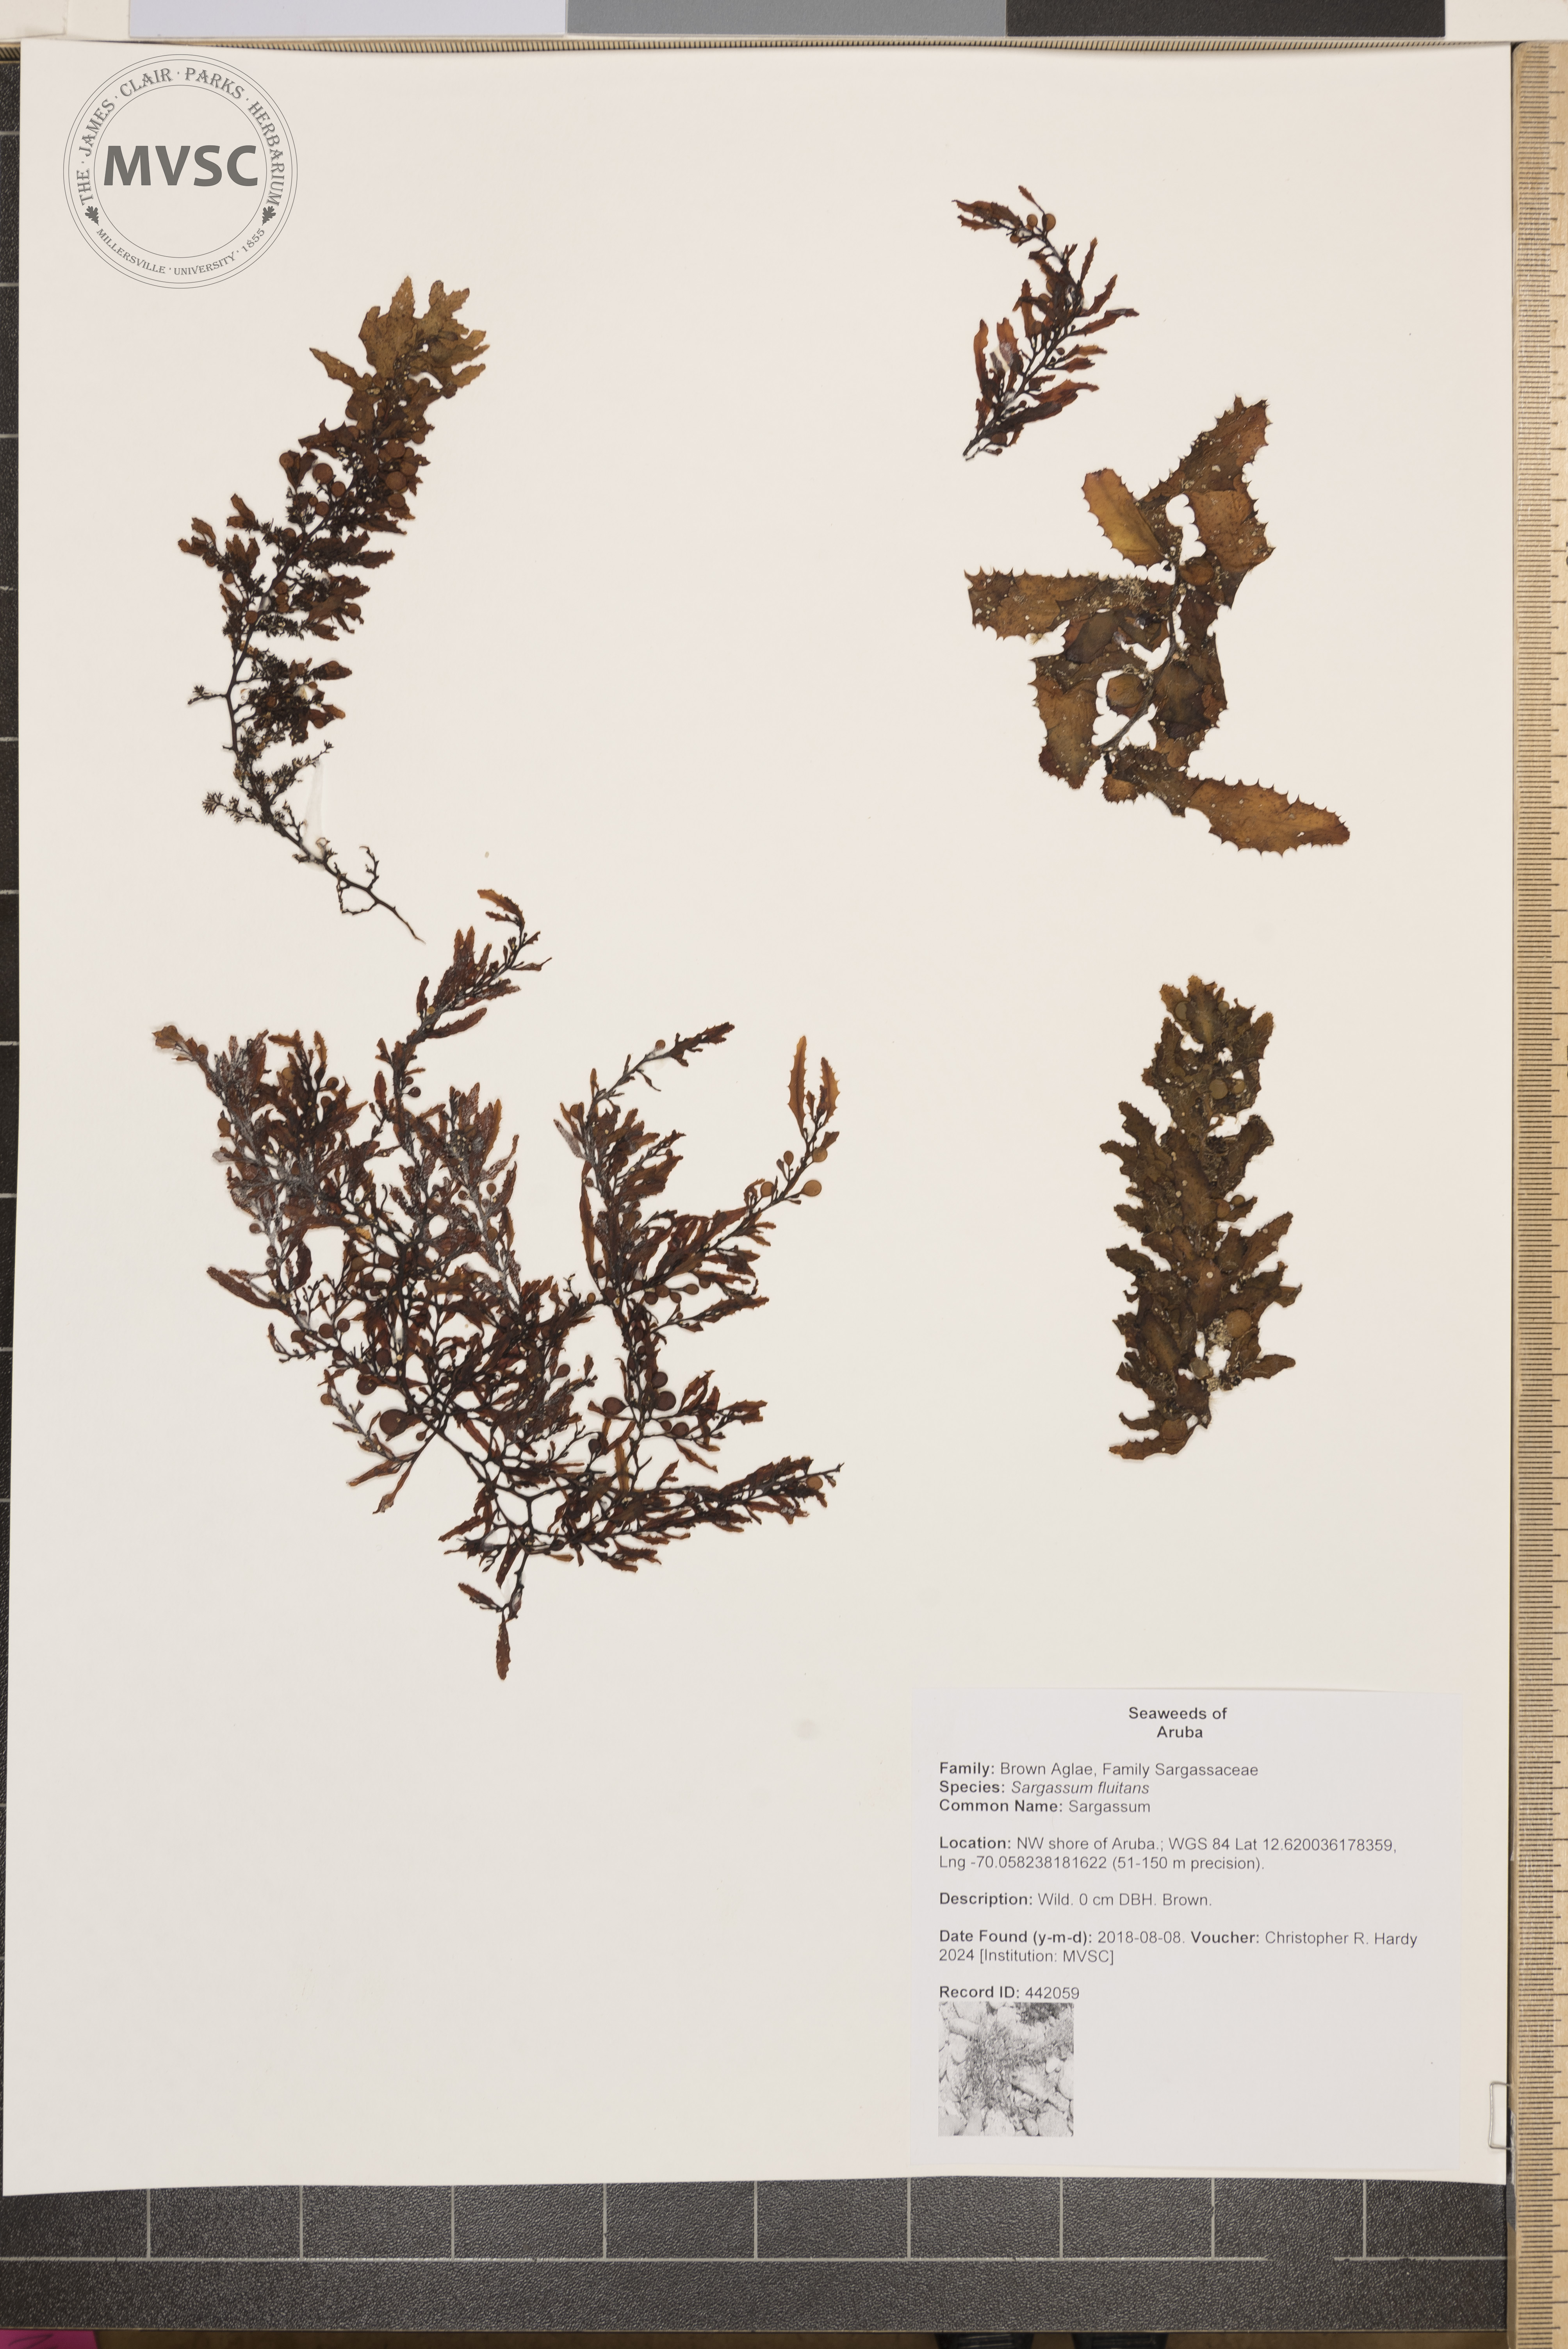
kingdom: Chromista
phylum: Ochrophyta
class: Phaeophyceae
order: Fucales
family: Sargassaceae
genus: Sargassum
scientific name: Sargassum fluitans
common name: Sargassum
